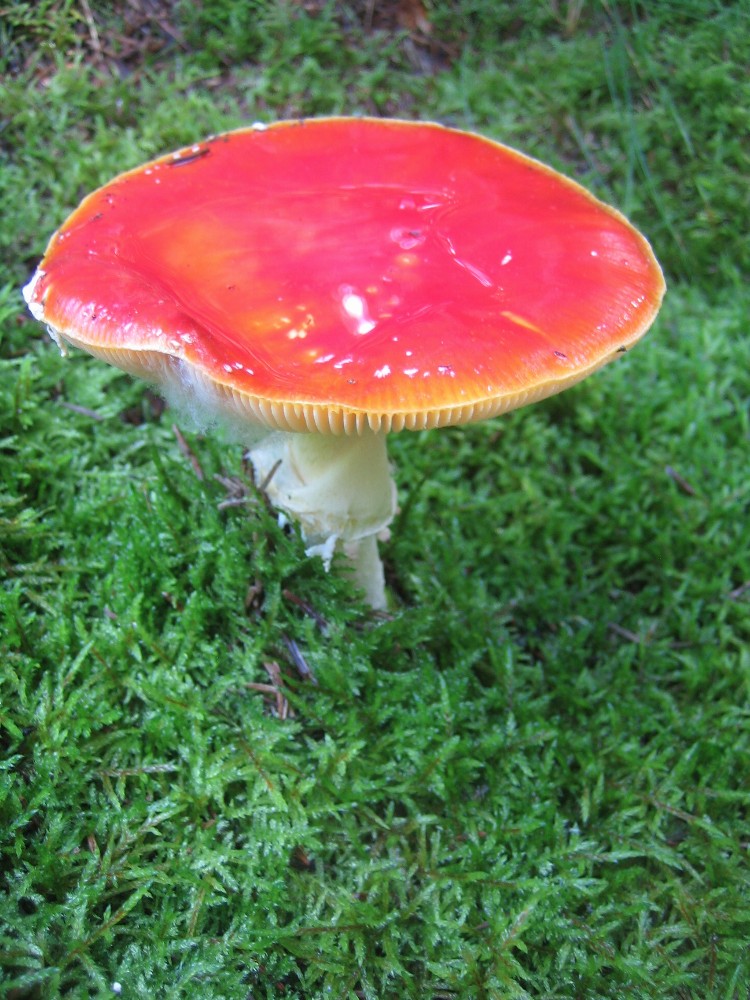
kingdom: Fungi
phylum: Basidiomycota
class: Agaricomycetes
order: Agaricales
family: Amanitaceae
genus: Amanita
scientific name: Amanita muscaria
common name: rød fluesvamp
